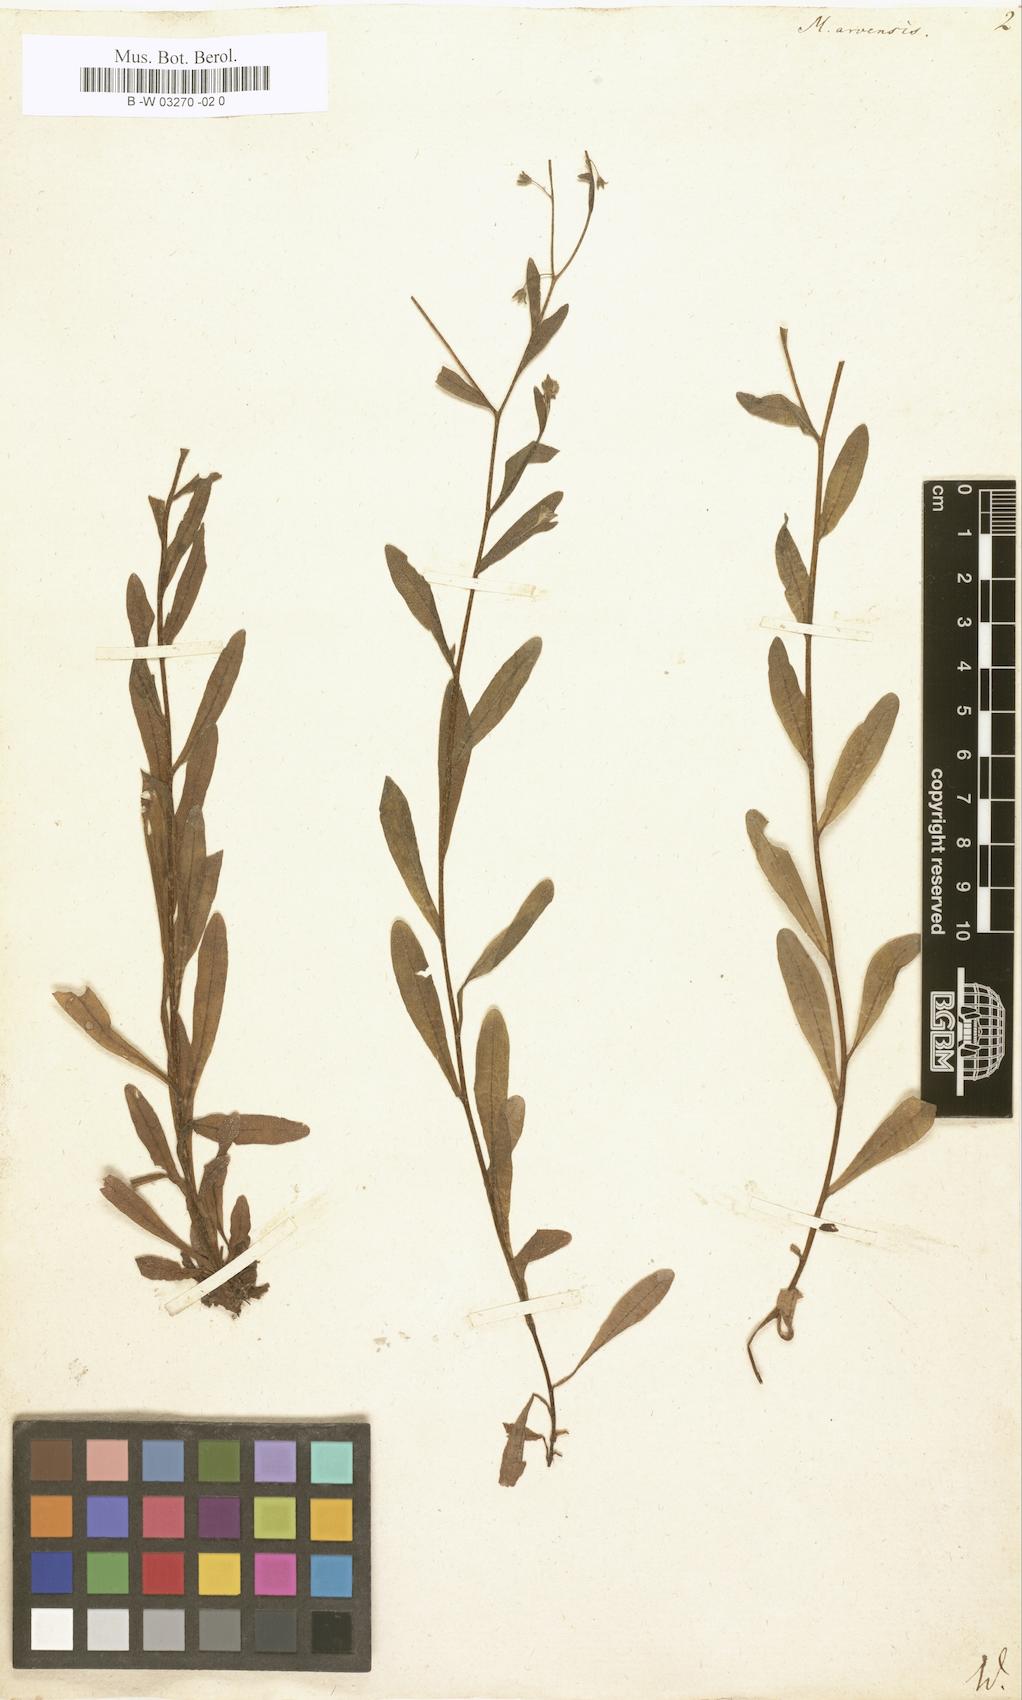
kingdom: Plantae
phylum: Tracheophyta
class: Magnoliopsida
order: Boraginales
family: Boraginaceae
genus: Myosotis
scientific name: Myosotis arvensis
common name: Field forget-me-not
